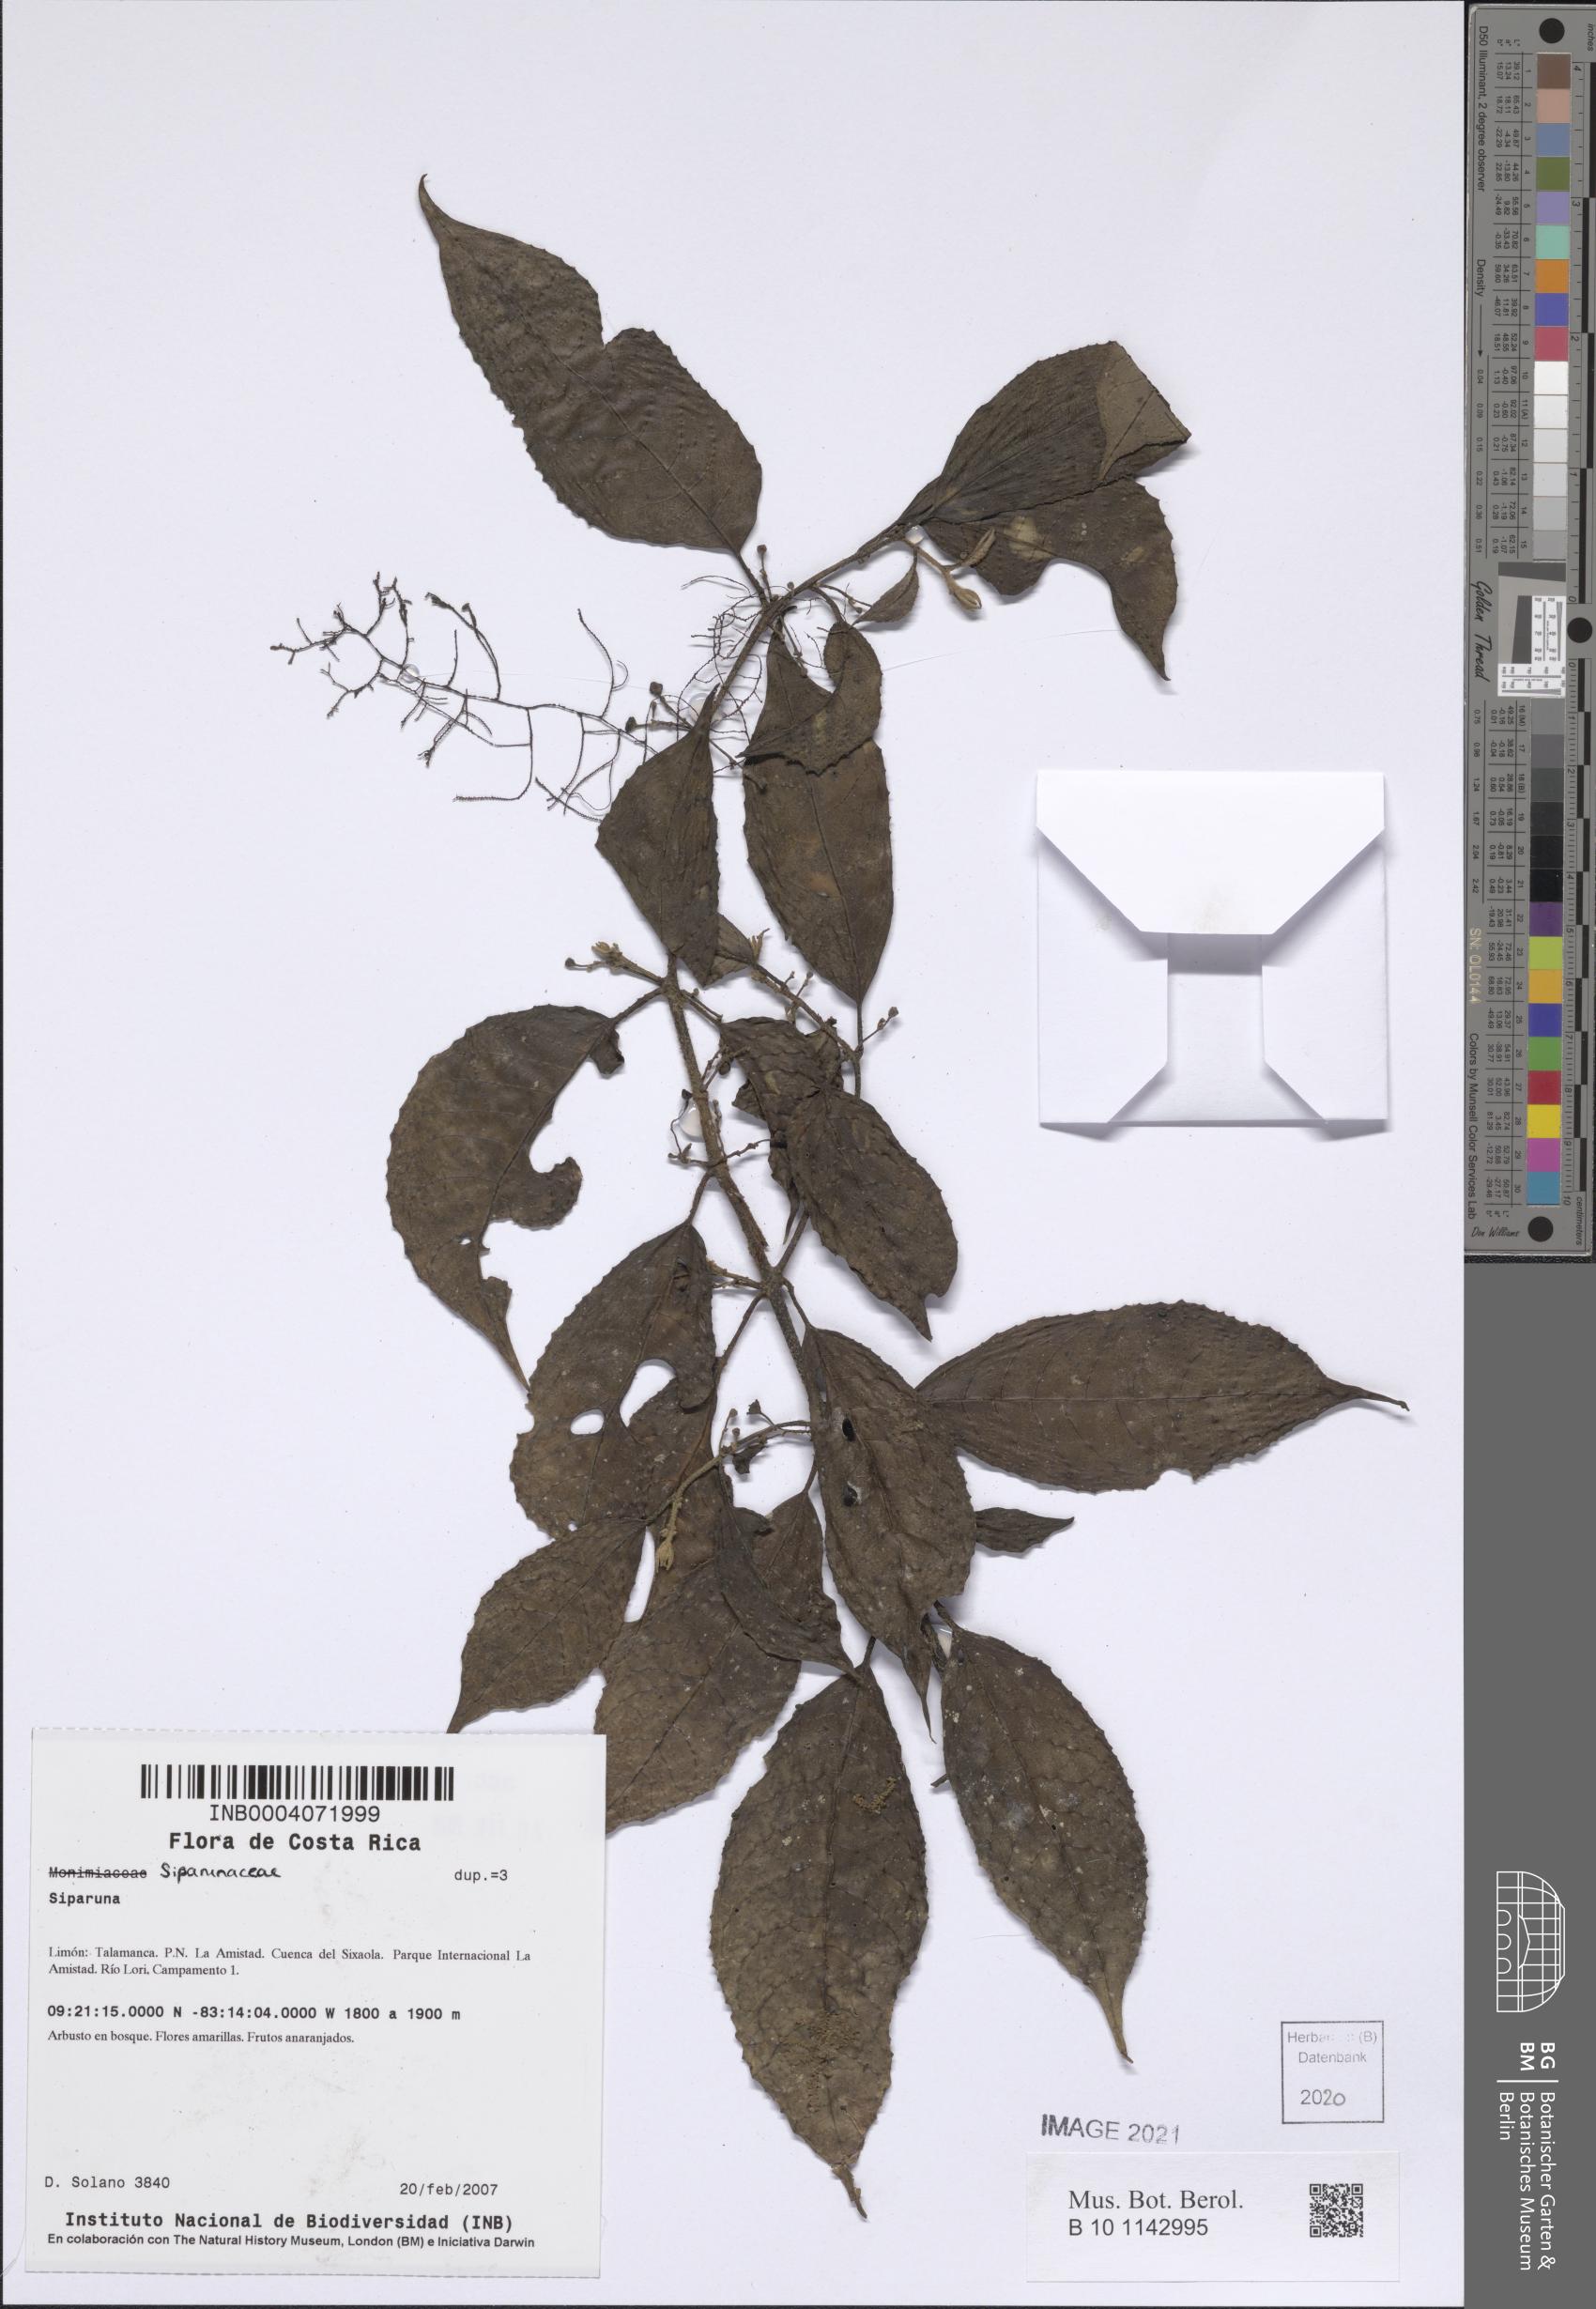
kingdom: Plantae
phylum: Tracheophyta
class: Magnoliopsida
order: Laurales
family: Siparunaceae
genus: Siparuna
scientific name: Siparuna
